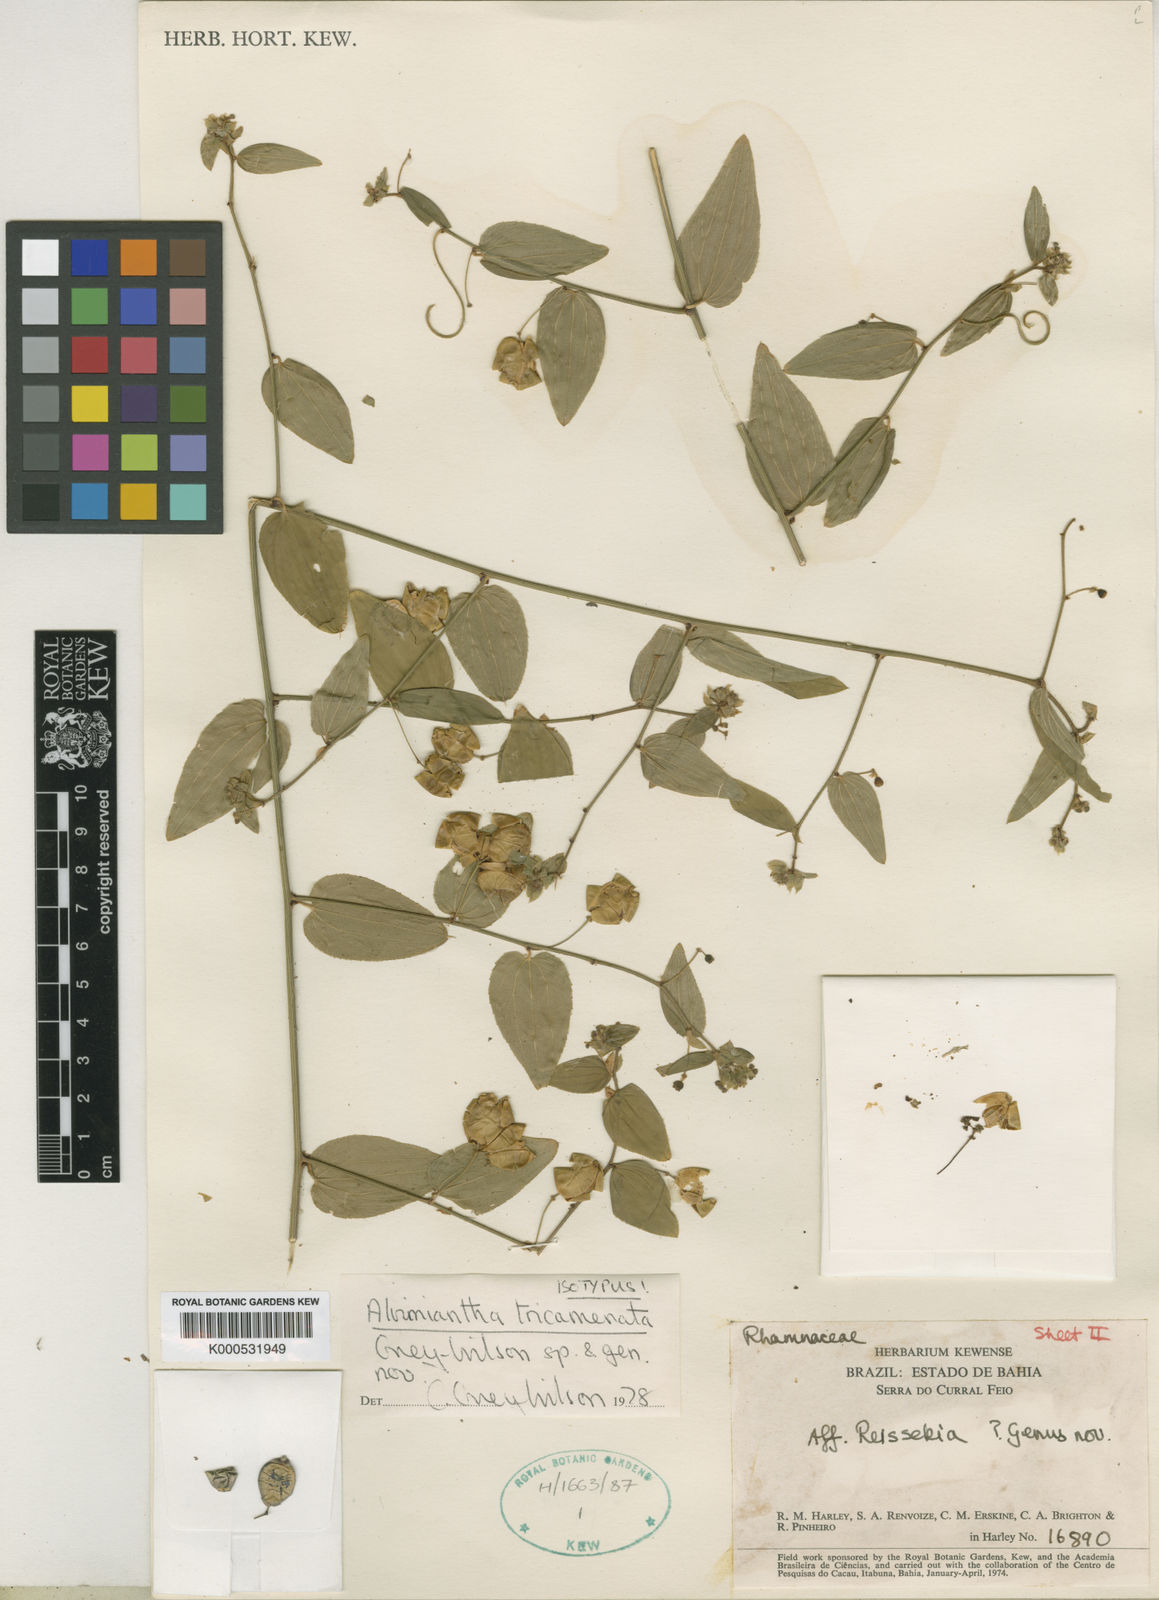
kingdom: Plantae
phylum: Tracheophyta
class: Magnoliopsida
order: Rosales
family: Rhamnaceae
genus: Alvimiantha
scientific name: Alvimiantha tricamerata
